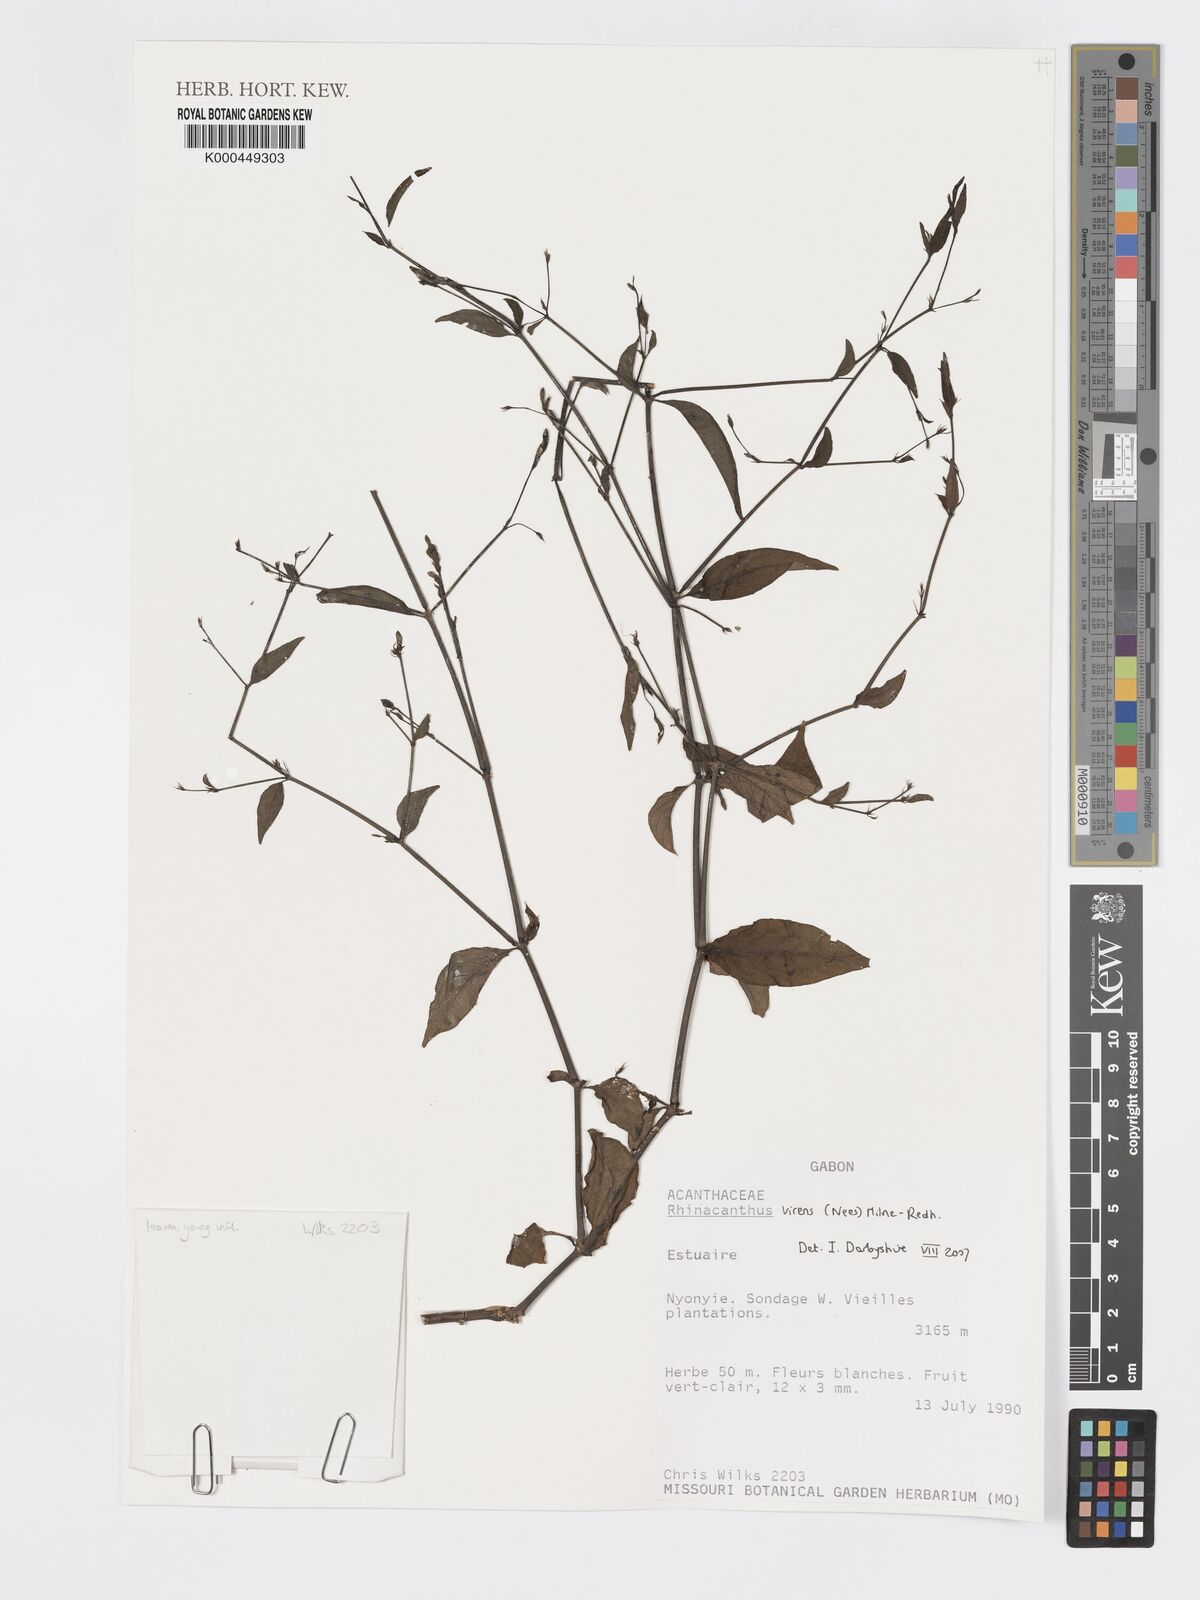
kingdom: Plantae
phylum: Tracheophyta
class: Magnoliopsida
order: Lamiales
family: Acanthaceae
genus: Rhinacanthus
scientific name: Rhinacanthus virens
